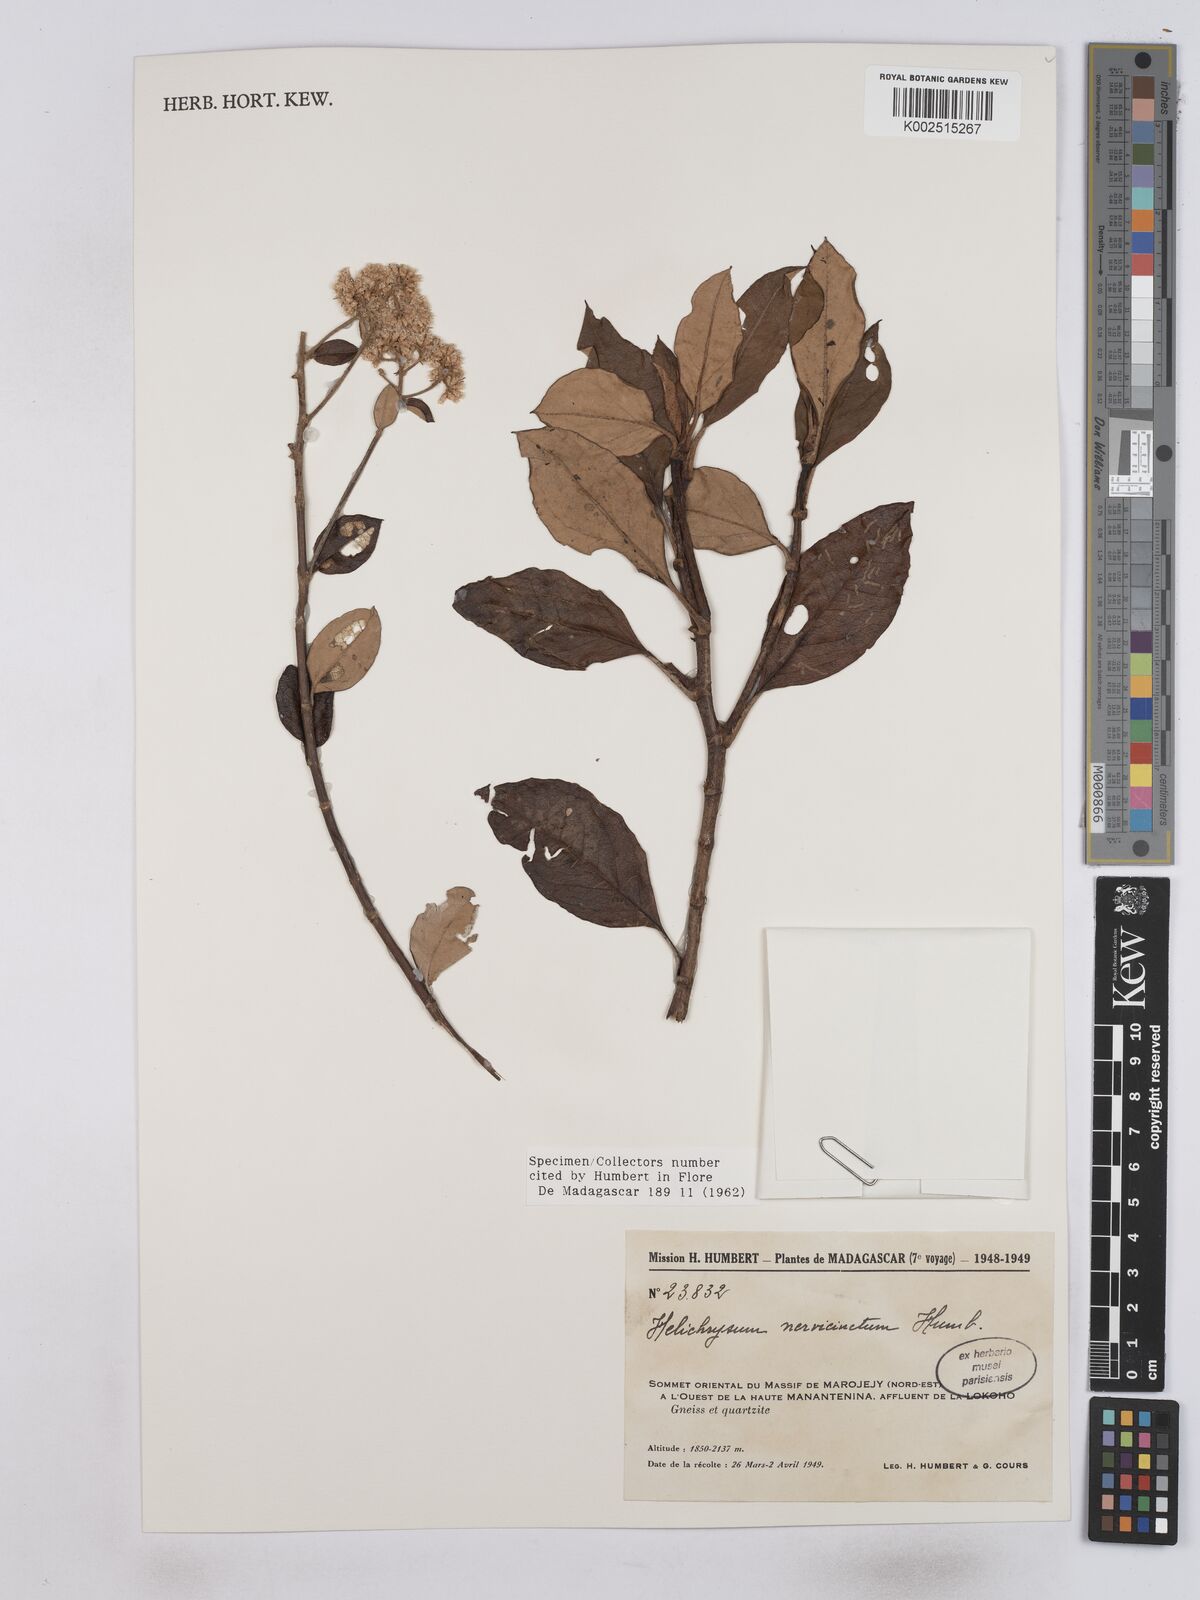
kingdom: Plantae
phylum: Tracheophyta
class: Magnoliopsida
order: Asterales
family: Asteraceae
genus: Helichrysum
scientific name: Helichrysum nervicinctum
